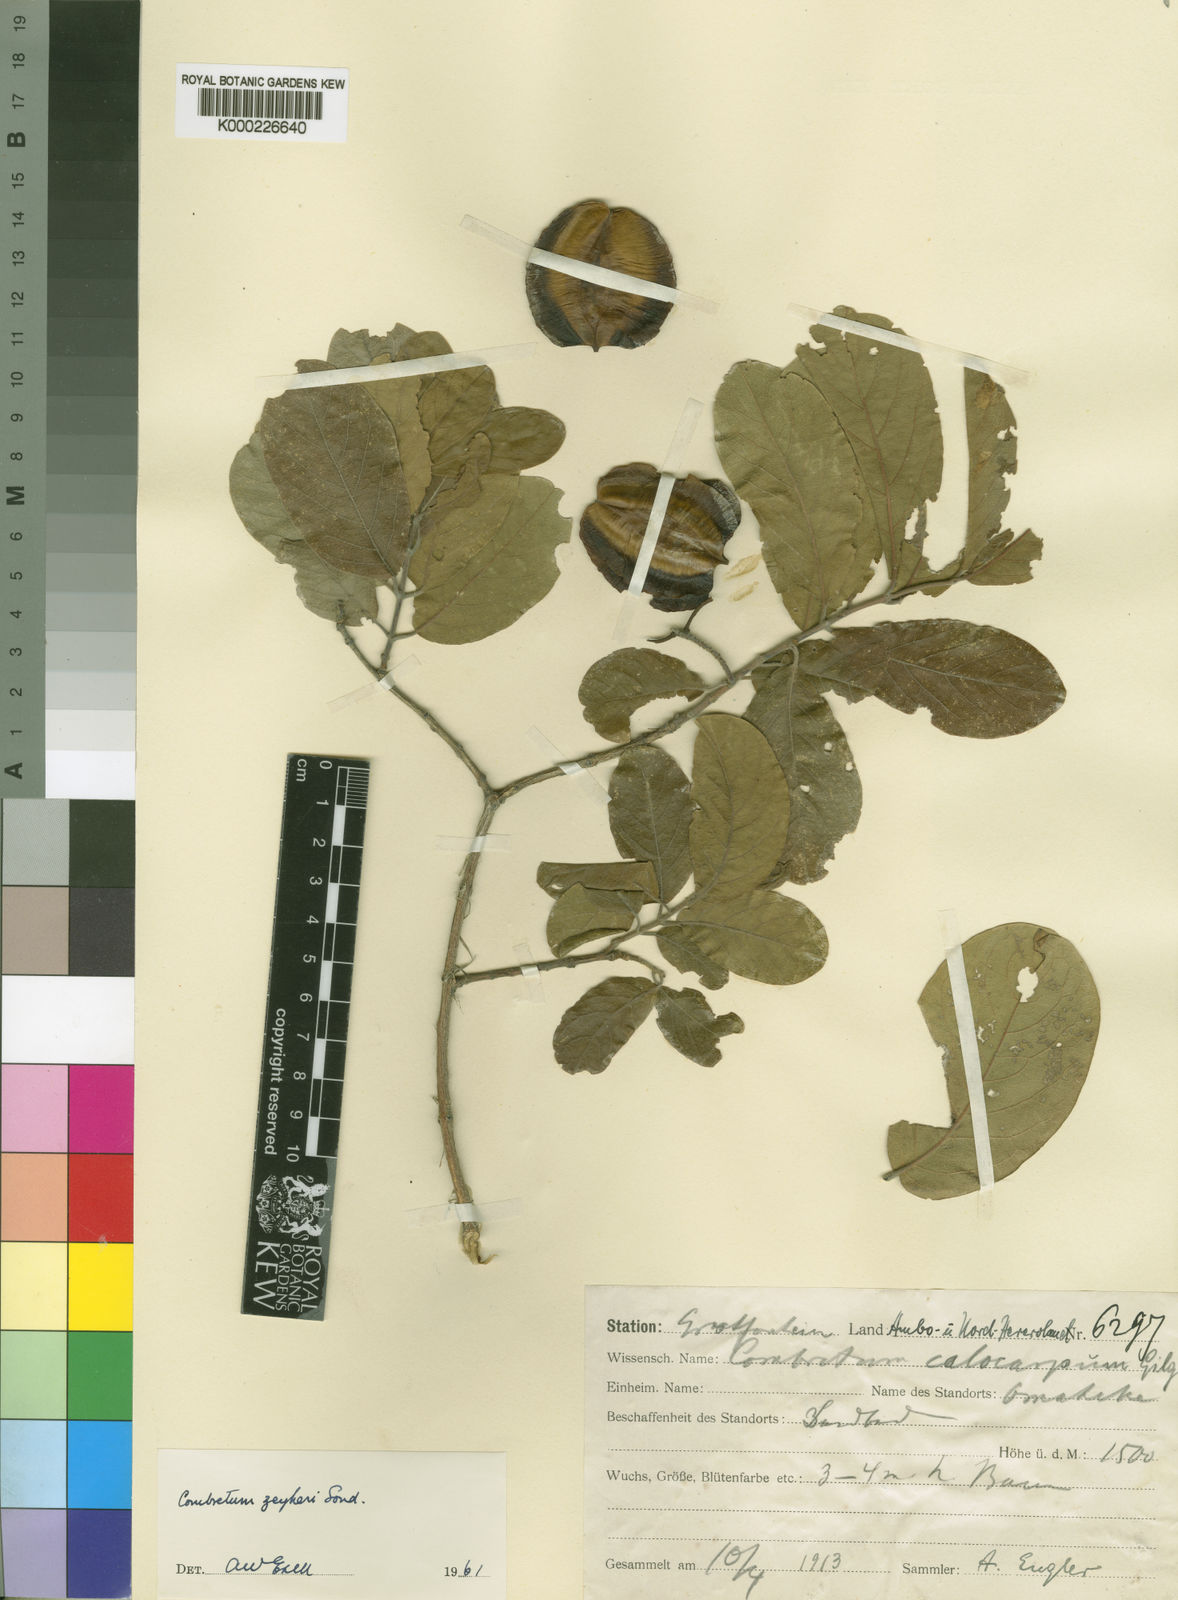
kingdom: Plantae
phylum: Tracheophyta
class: Magnoliopsida
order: Myrtales
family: Combretaceae
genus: Combretum
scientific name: Combretum
